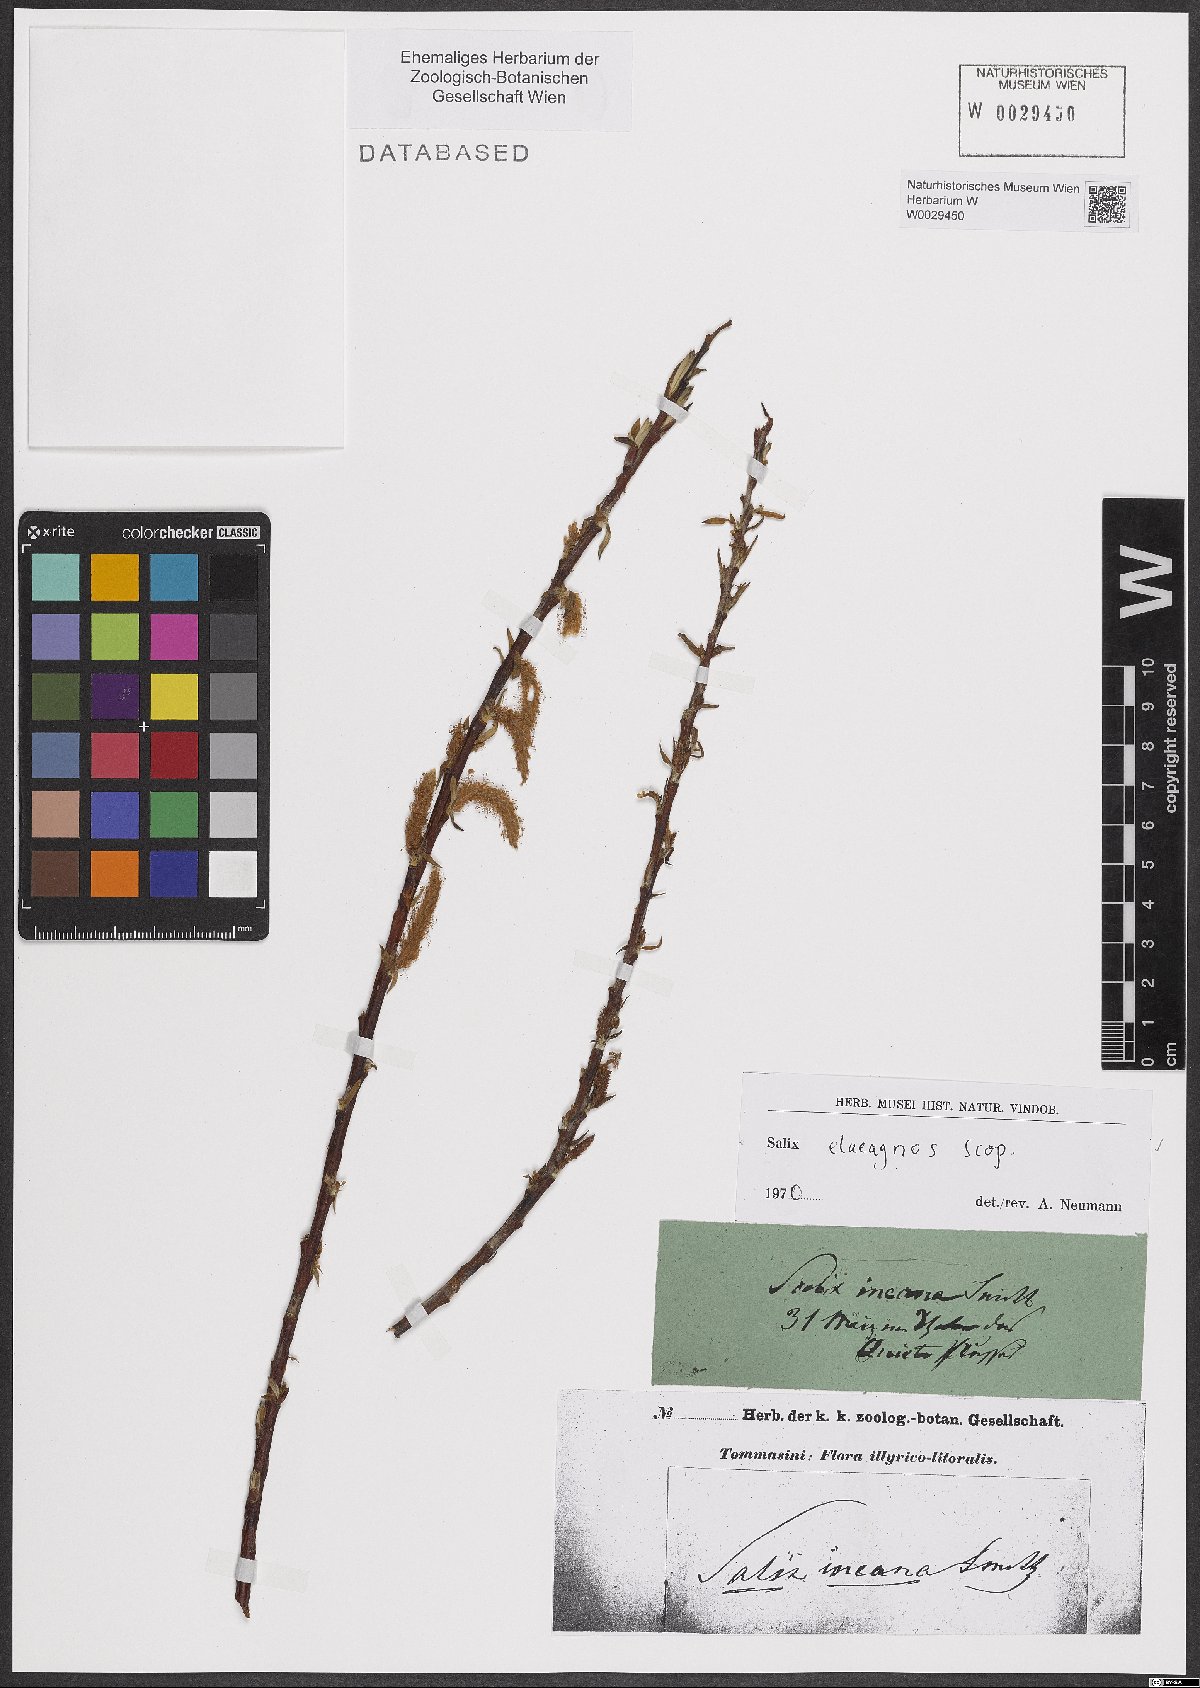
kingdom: Plantae
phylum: Tracheophyta
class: Magnoliopsida
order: Malpighiales
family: Salicaceae
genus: Salix
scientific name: Salix eleagnos
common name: Elaeagnus willow
